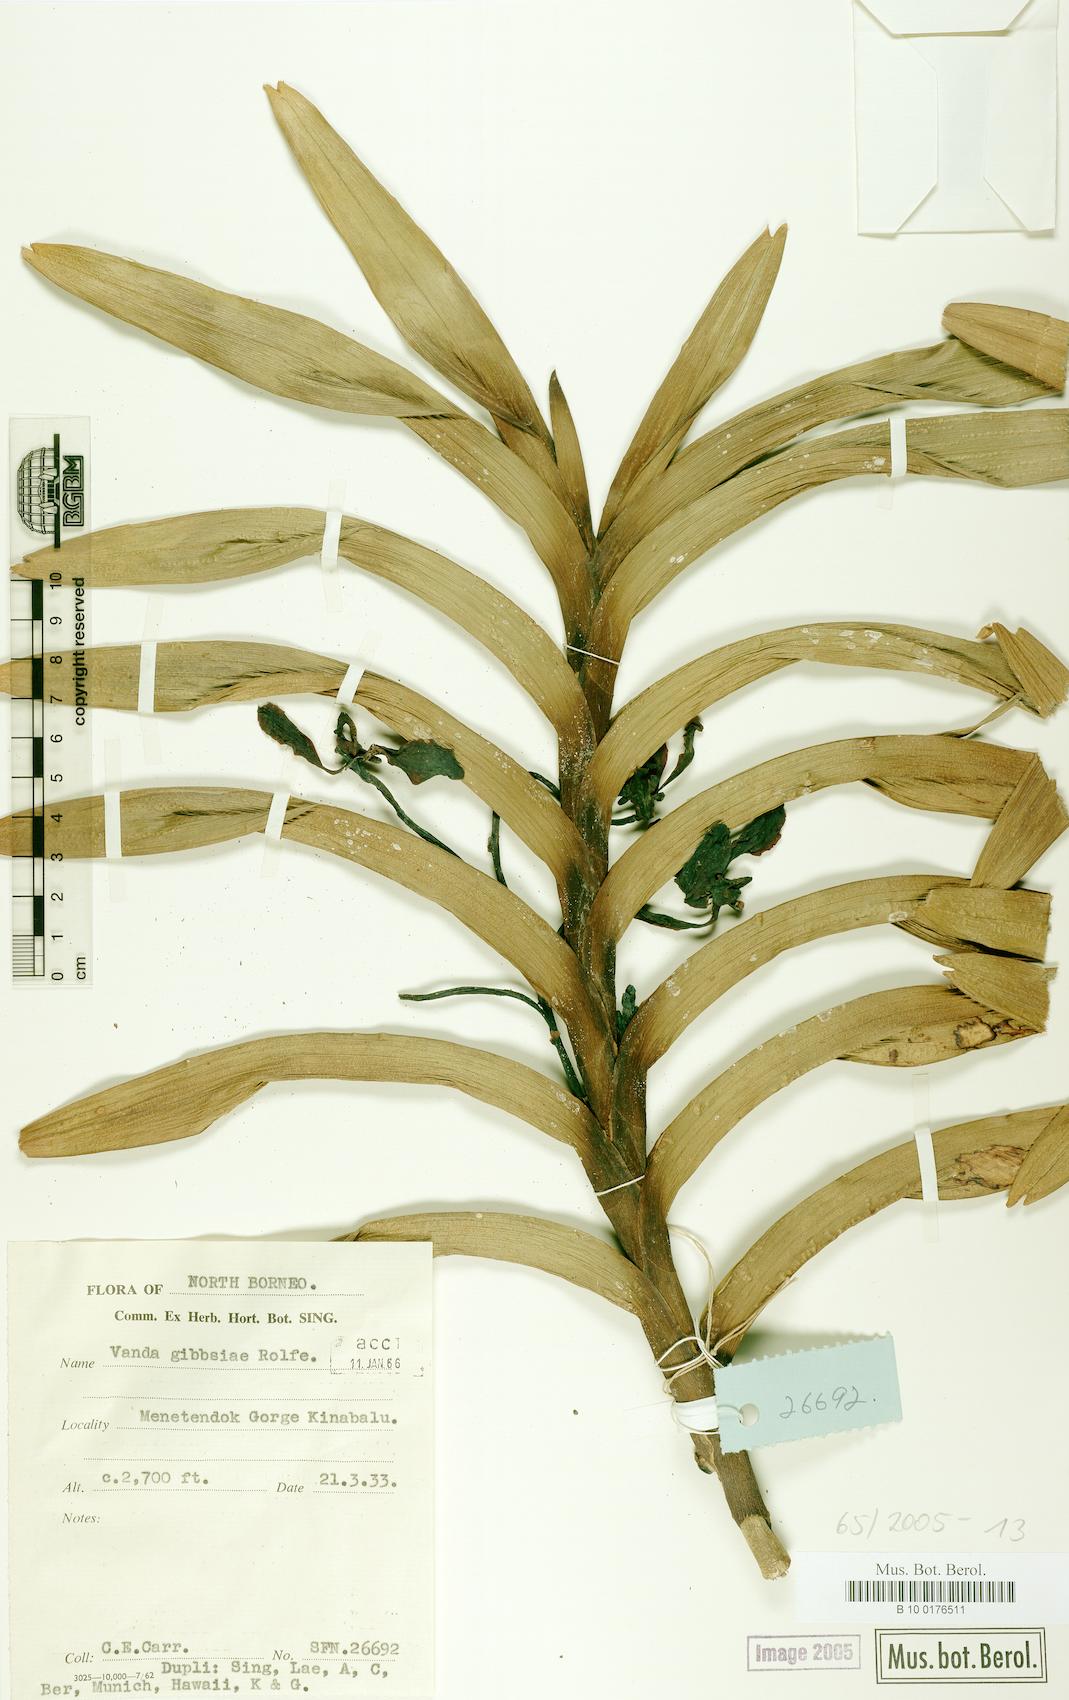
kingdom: Plantae
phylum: Tracheophyta
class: Liliopsida
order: Asparagales
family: Orchidaceae
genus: Vanda
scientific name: Vanda gibbsiae
